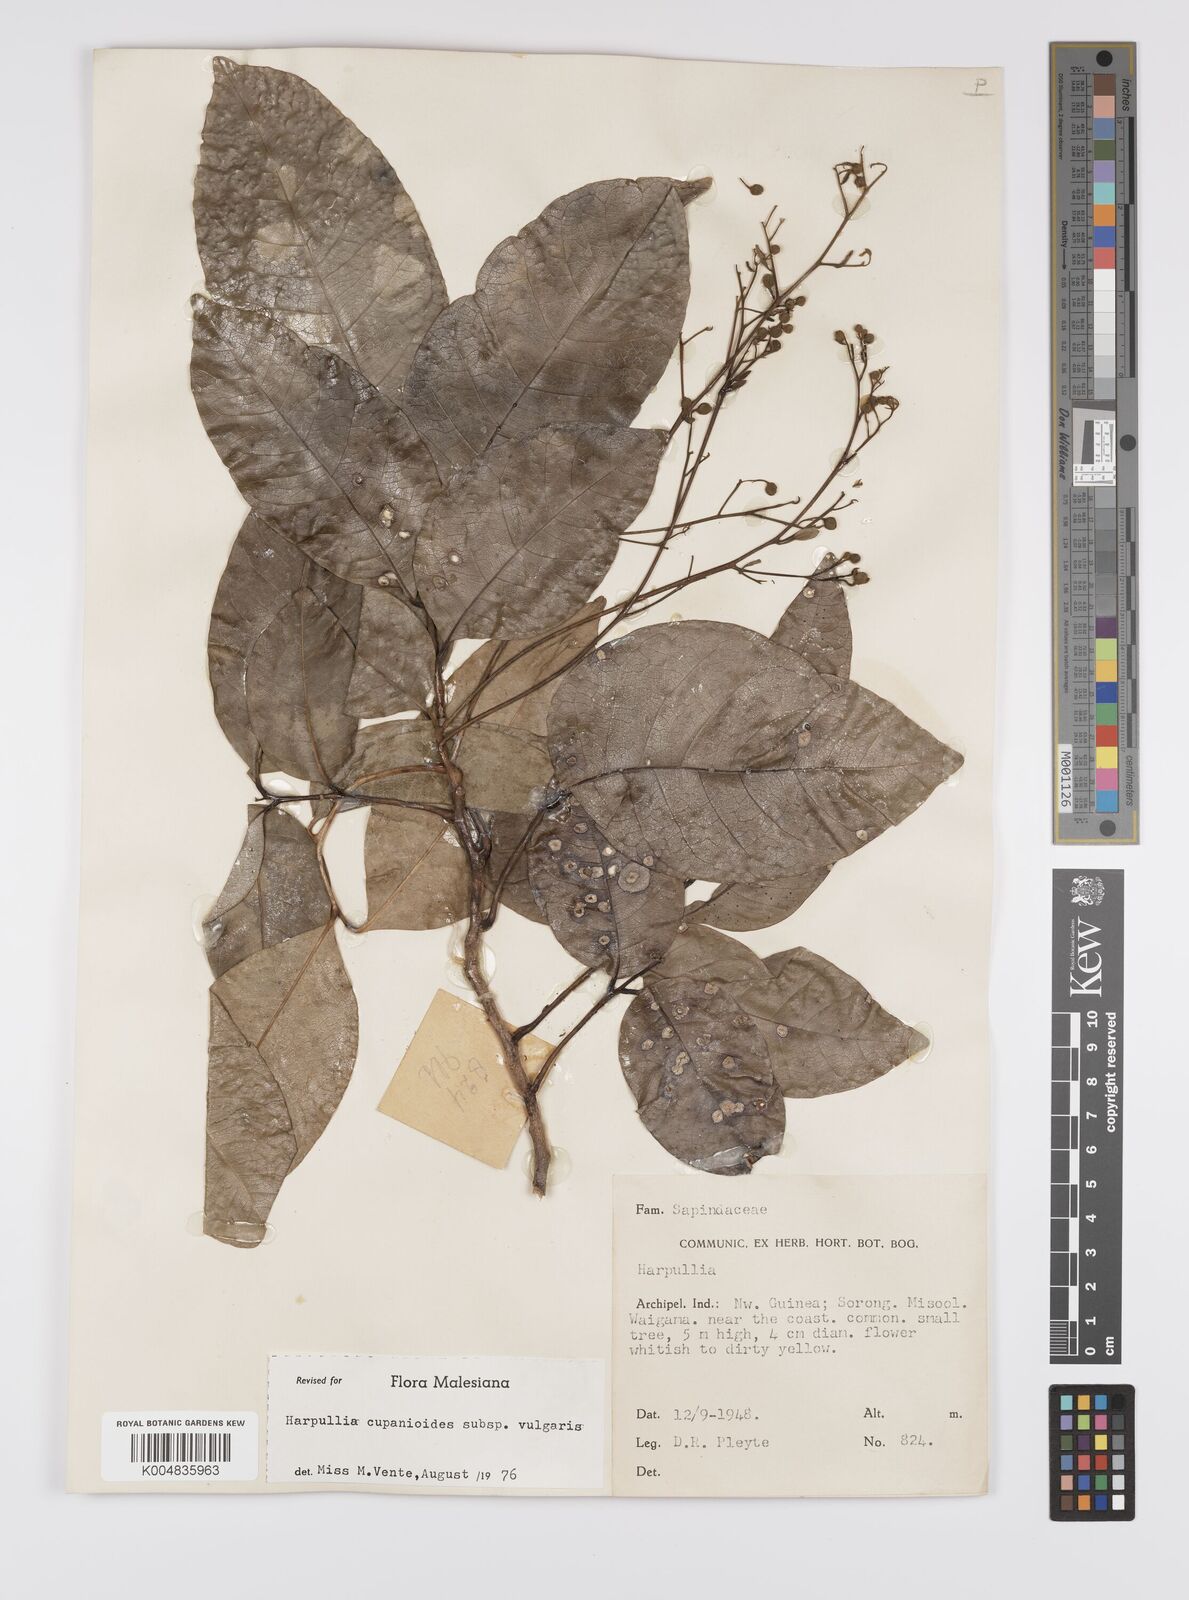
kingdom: Plantae
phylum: Tracheophyta
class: Magnoliopsida
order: Sapindales
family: Sapindaceae
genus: Harpullia
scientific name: Harpullia cupanioides
